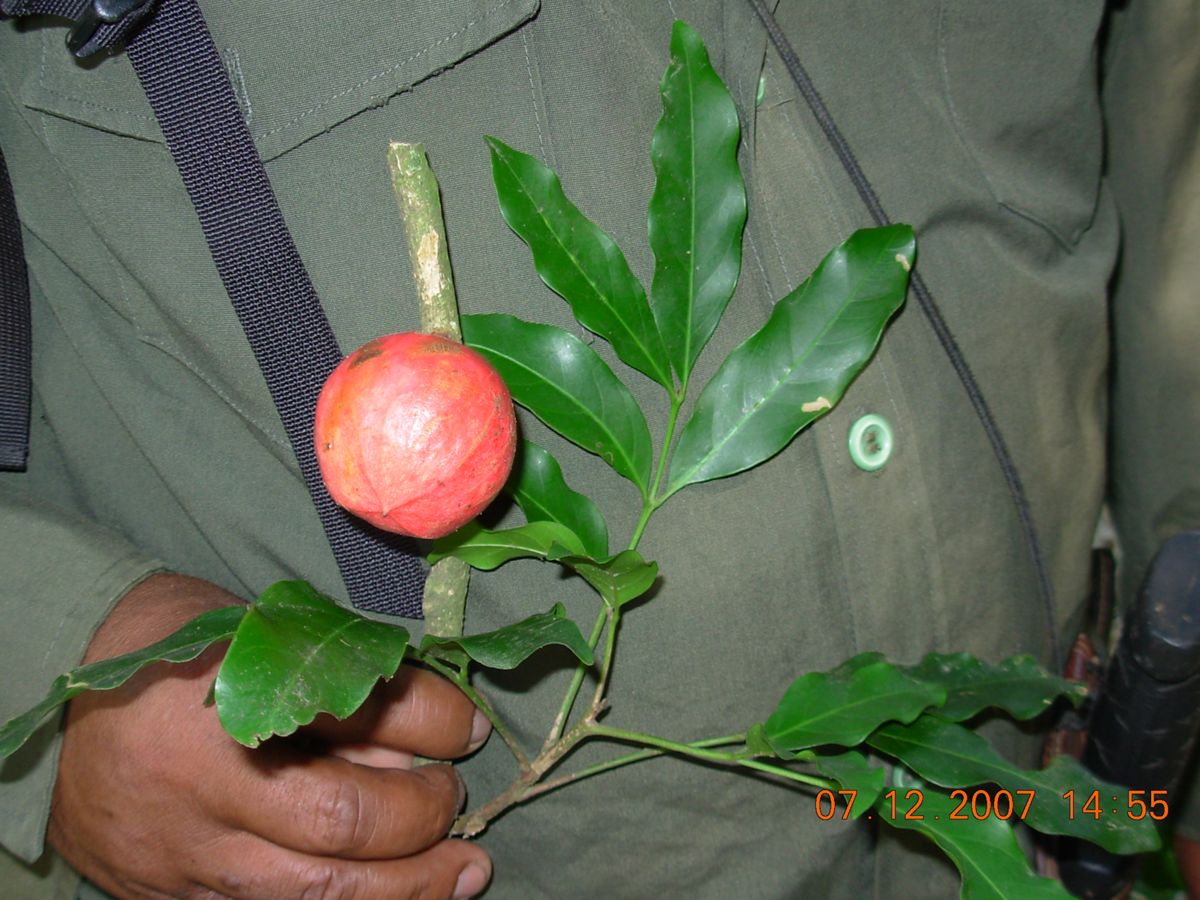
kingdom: Plantae
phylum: Tracheophyta
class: Magnoliopsida
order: Sapindales
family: Meliaceae
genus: Guarea
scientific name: Guarea glabra
